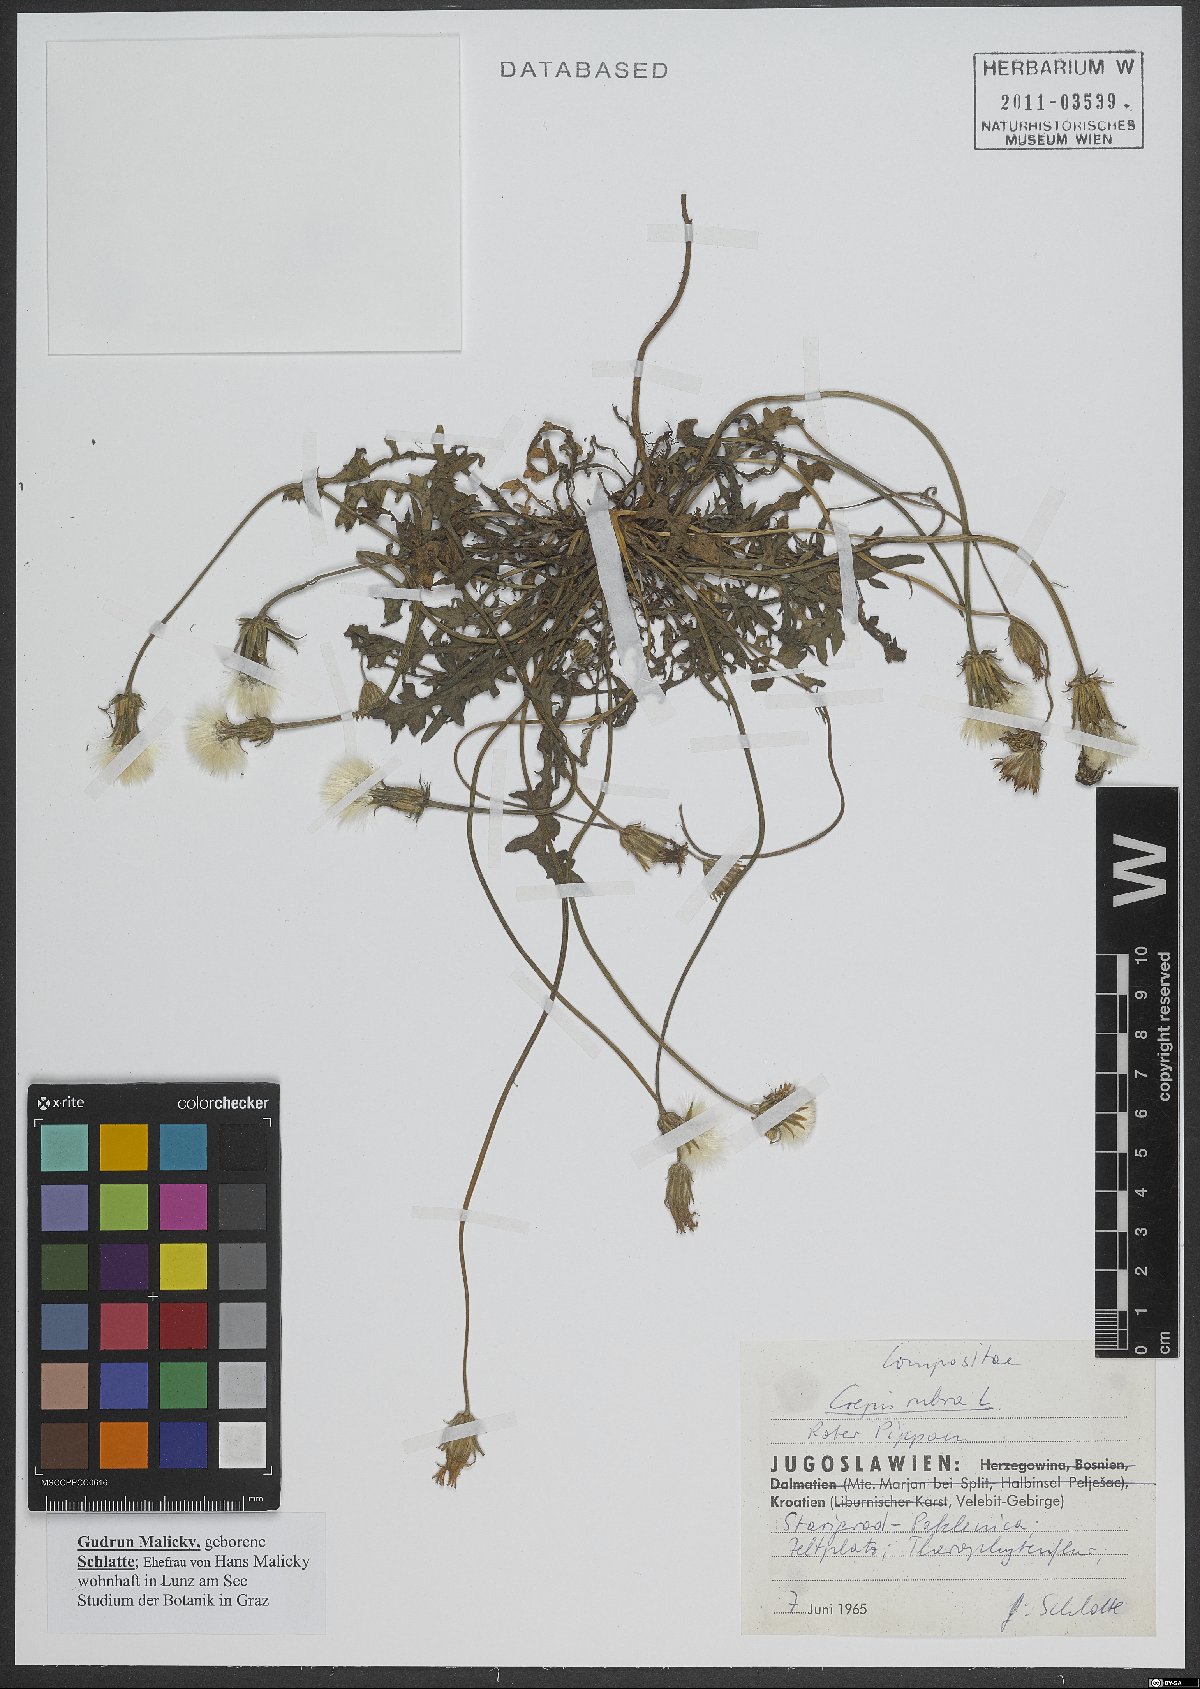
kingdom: Plantae
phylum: Tracheophyta
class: Magnoliopsida
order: Asterales
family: Asteraceae
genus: Crepis
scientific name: Crepis rubra
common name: Pink hawk's-beard
